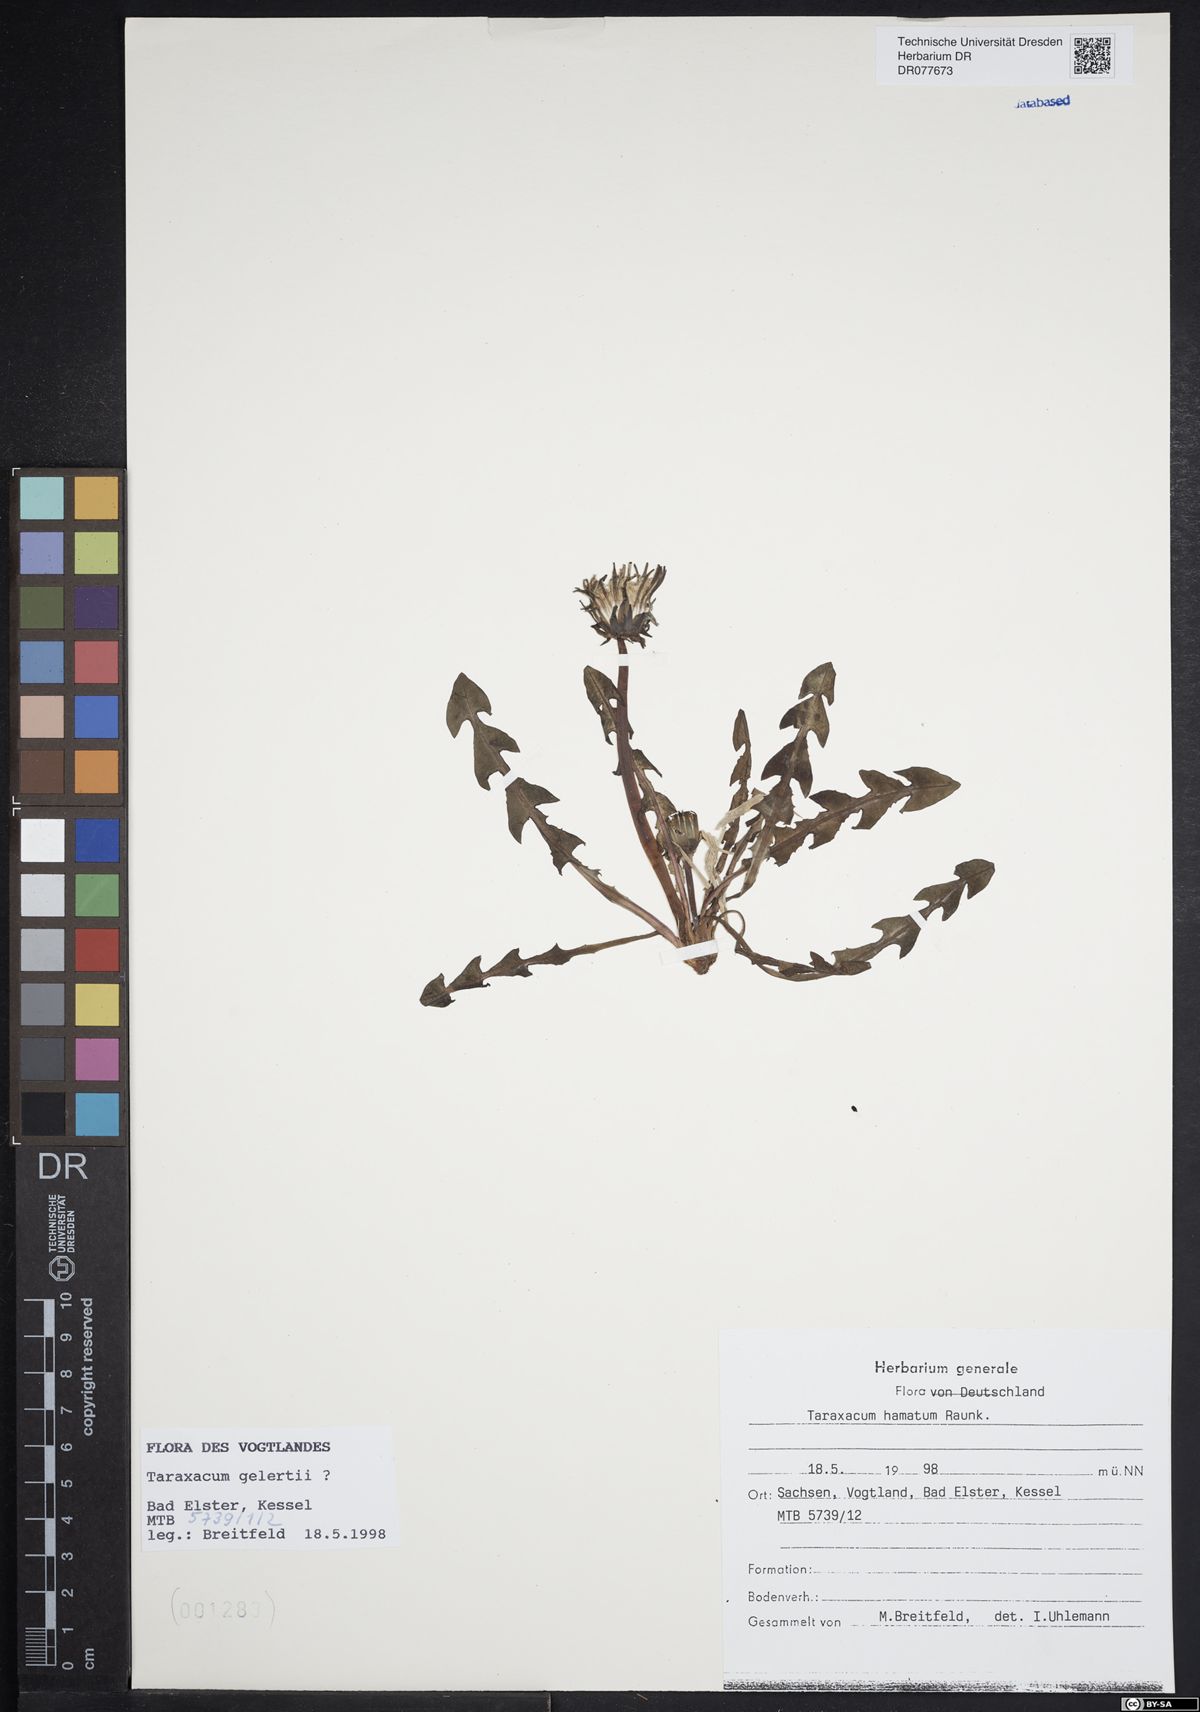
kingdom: Plantae
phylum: Tracheophyta
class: Magnoliopsida
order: Asterales
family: Asteraceae
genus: Taraxacum
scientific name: Taraxacum hamatum
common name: Hook-lobed dandelion
